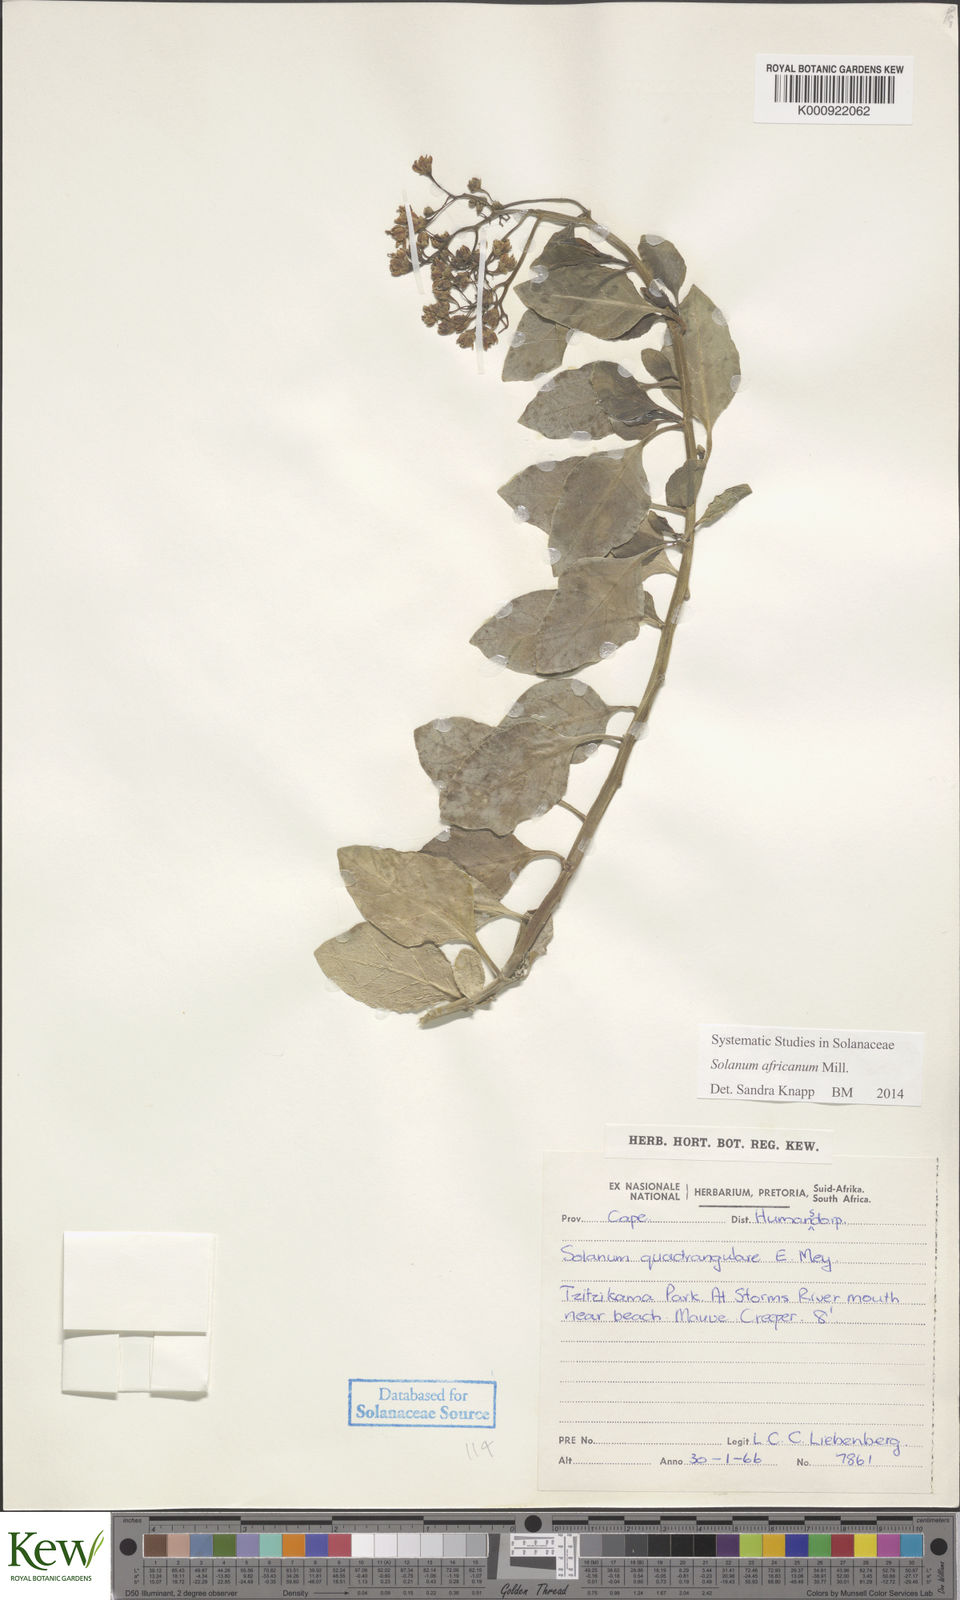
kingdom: Plantae
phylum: Tracheophyta
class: Magnoliopsida
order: Solanales
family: Solanaceae
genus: Solanum
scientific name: Solanum africanum
